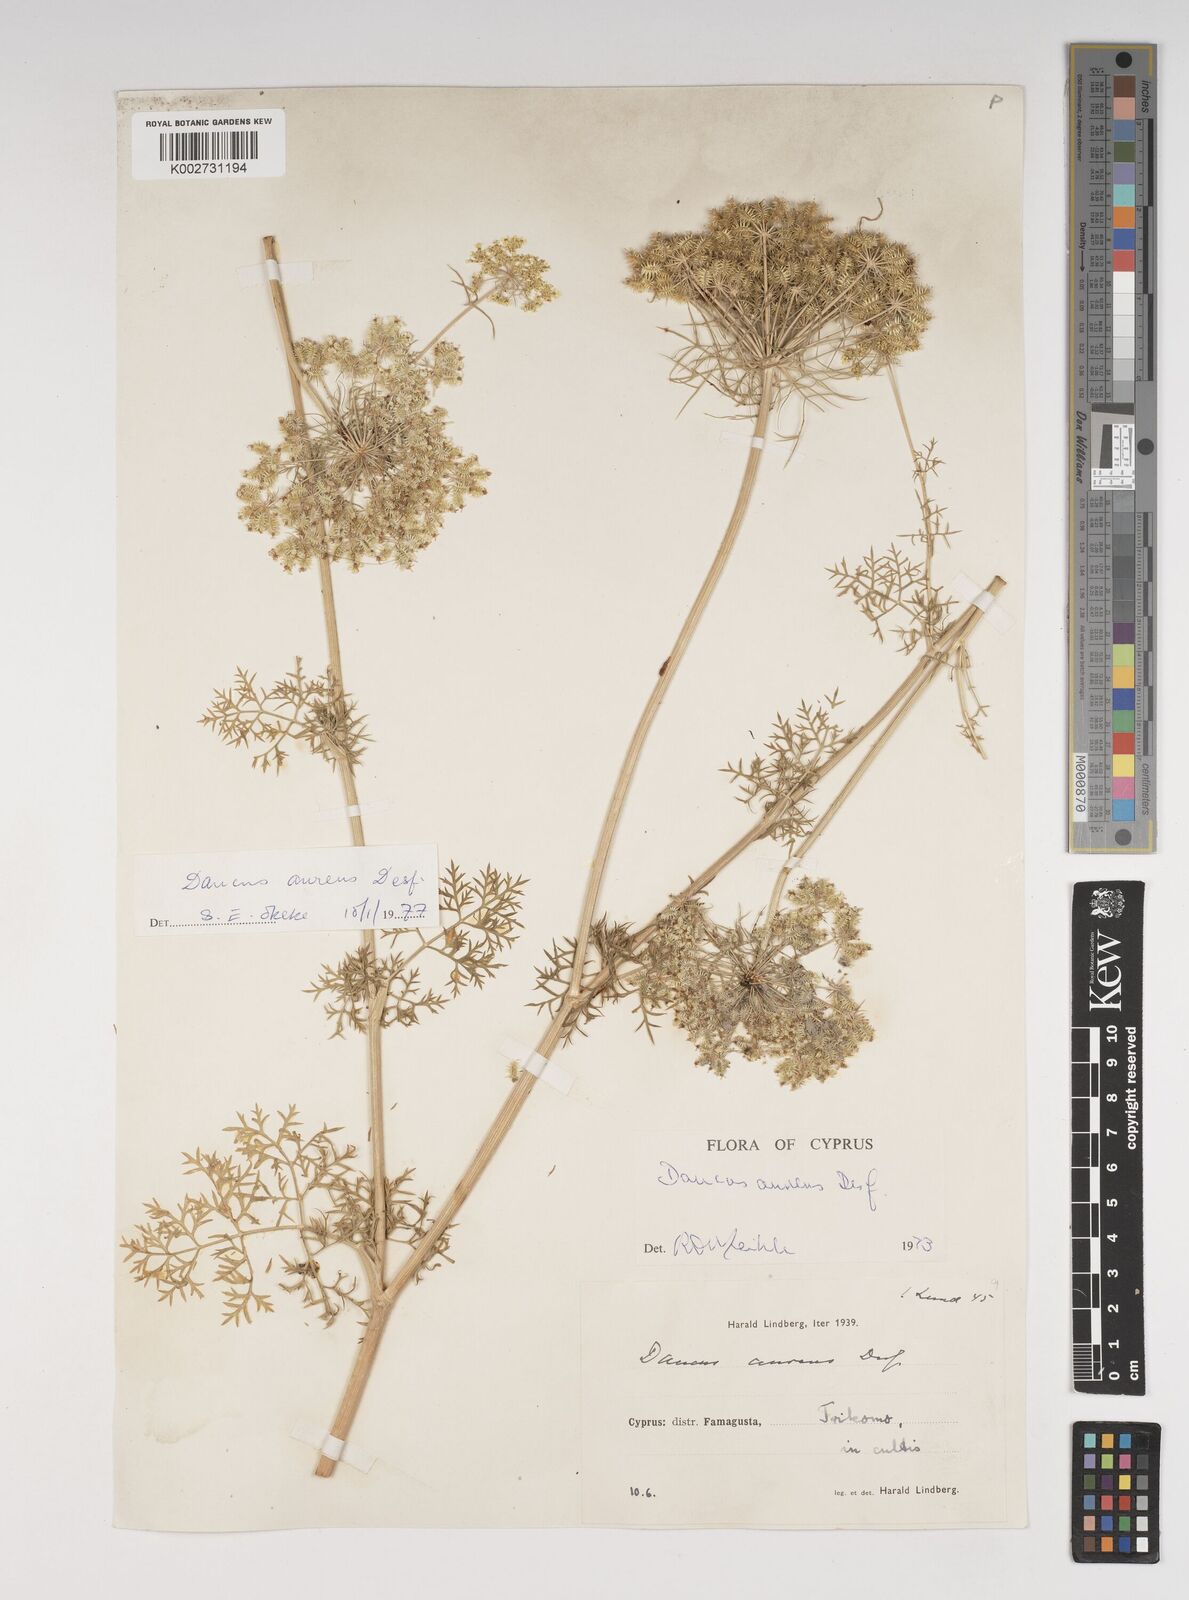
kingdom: Plantae
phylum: Tracheophyta
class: Magnoliopsida
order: Apiales
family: Apiaceae
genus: Daucus
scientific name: Daucus aureus
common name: Golden carrot
